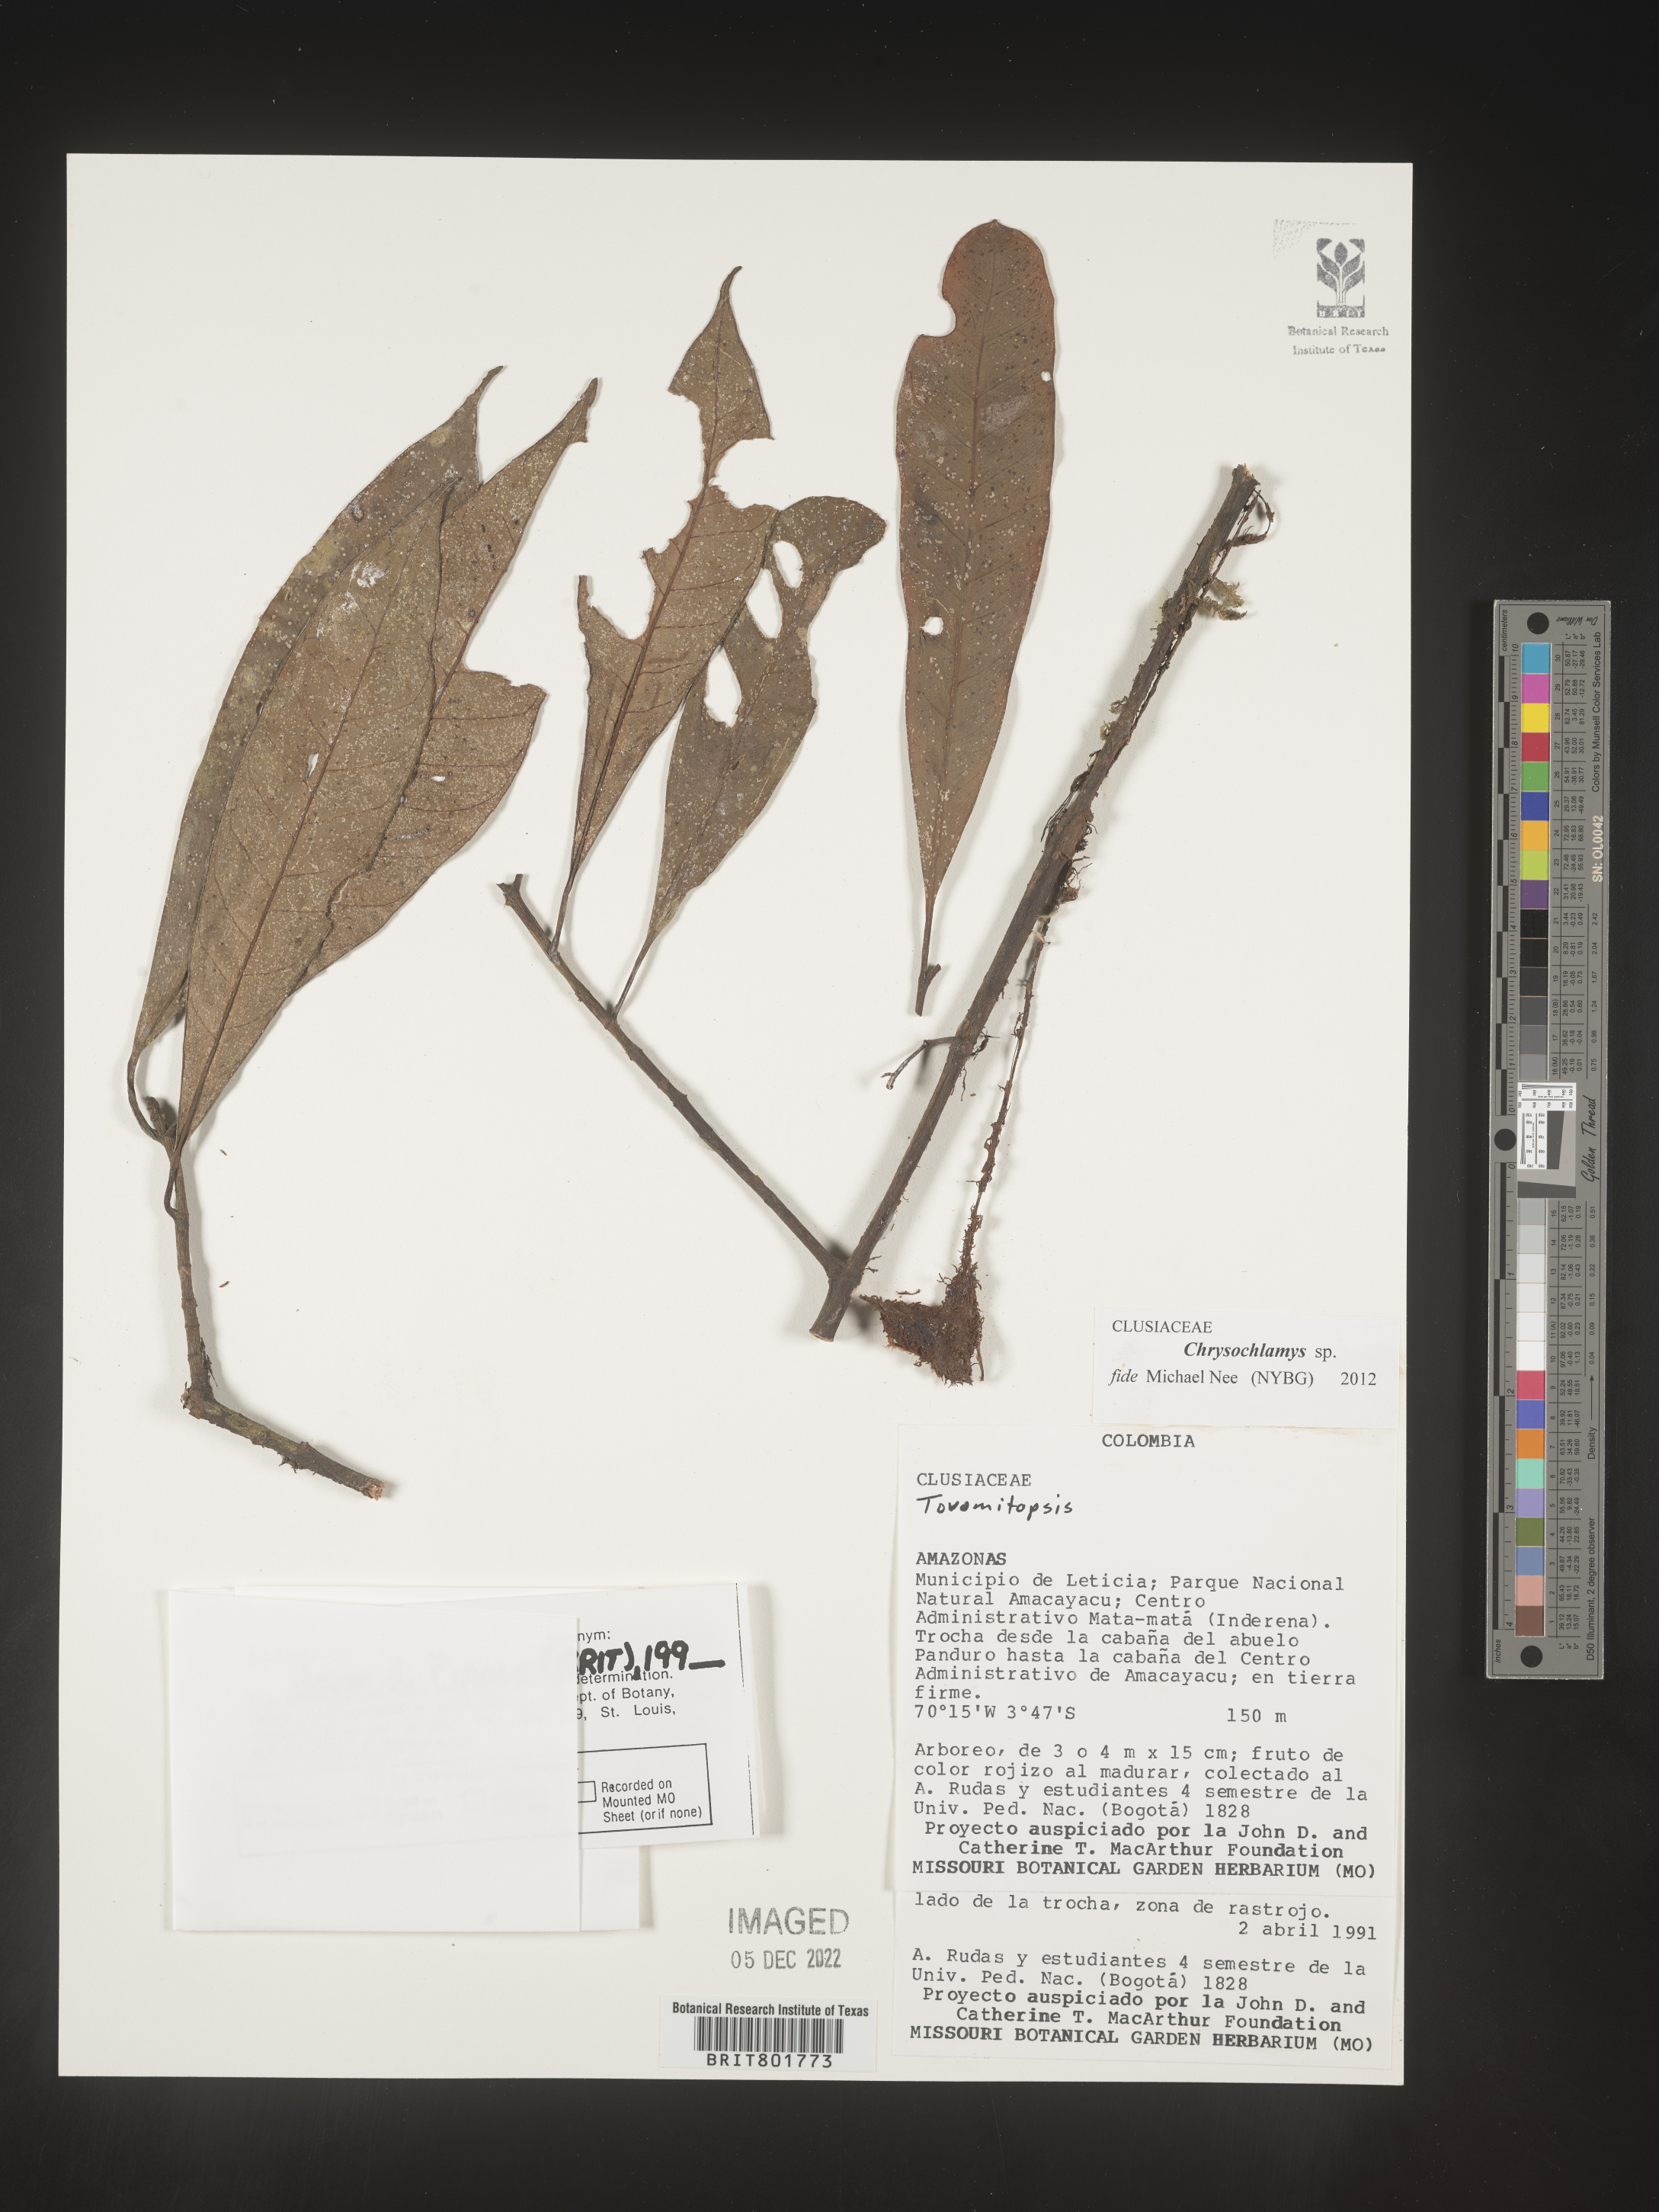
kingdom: Plantae
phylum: Tracheophyta
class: Magnoliopsida
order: Malpighiales
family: Clusiaceae
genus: Chrysochlamys
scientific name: Chrysochlamys
